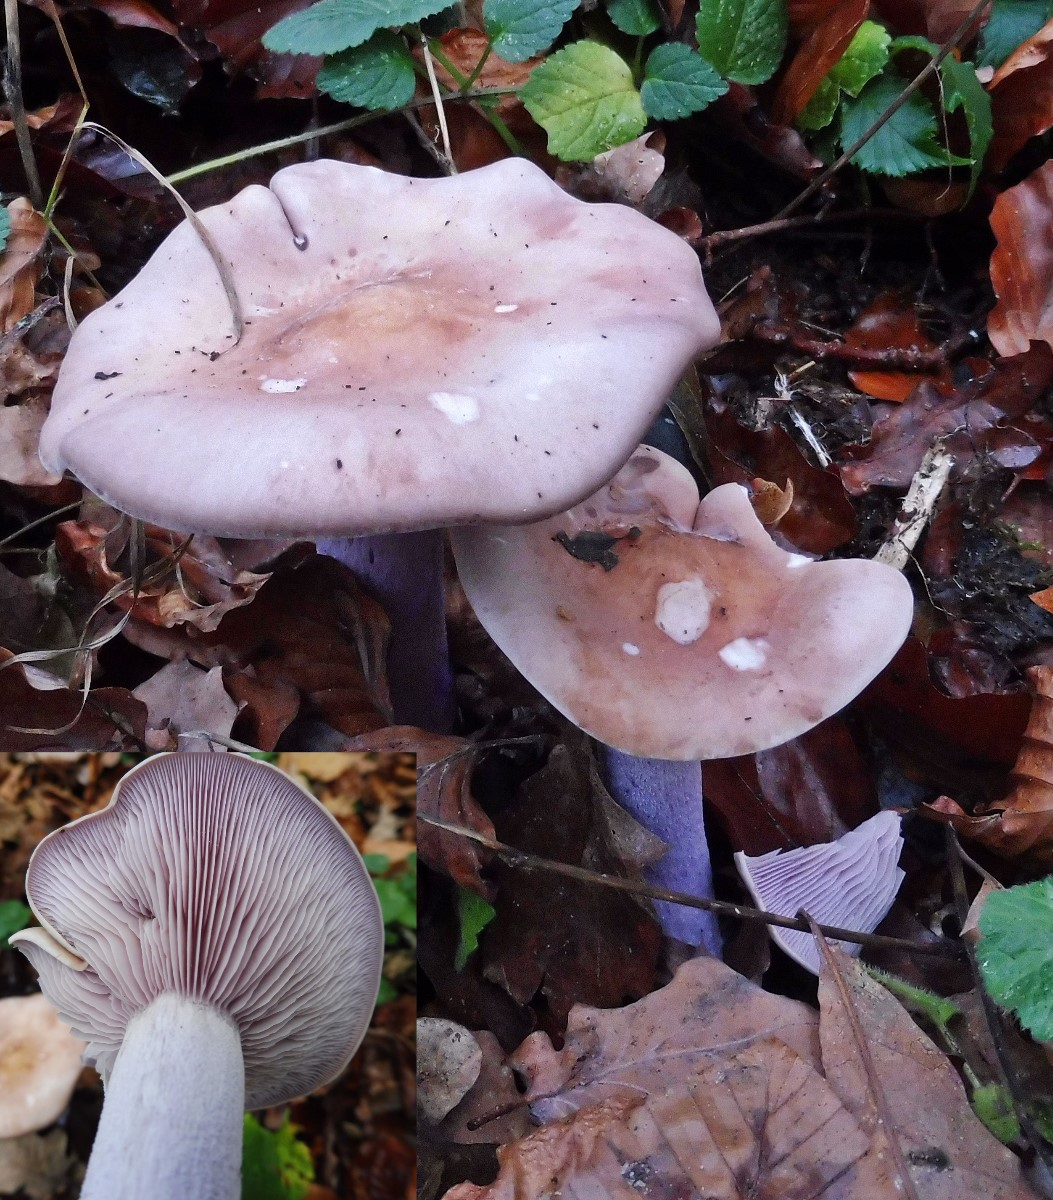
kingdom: Fungi
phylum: Basidiomycota
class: Agaricomycetes
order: Agaricales
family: Tricholomataceae
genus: Lepista
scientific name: Lepista nuda
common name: violet hekseringshat
